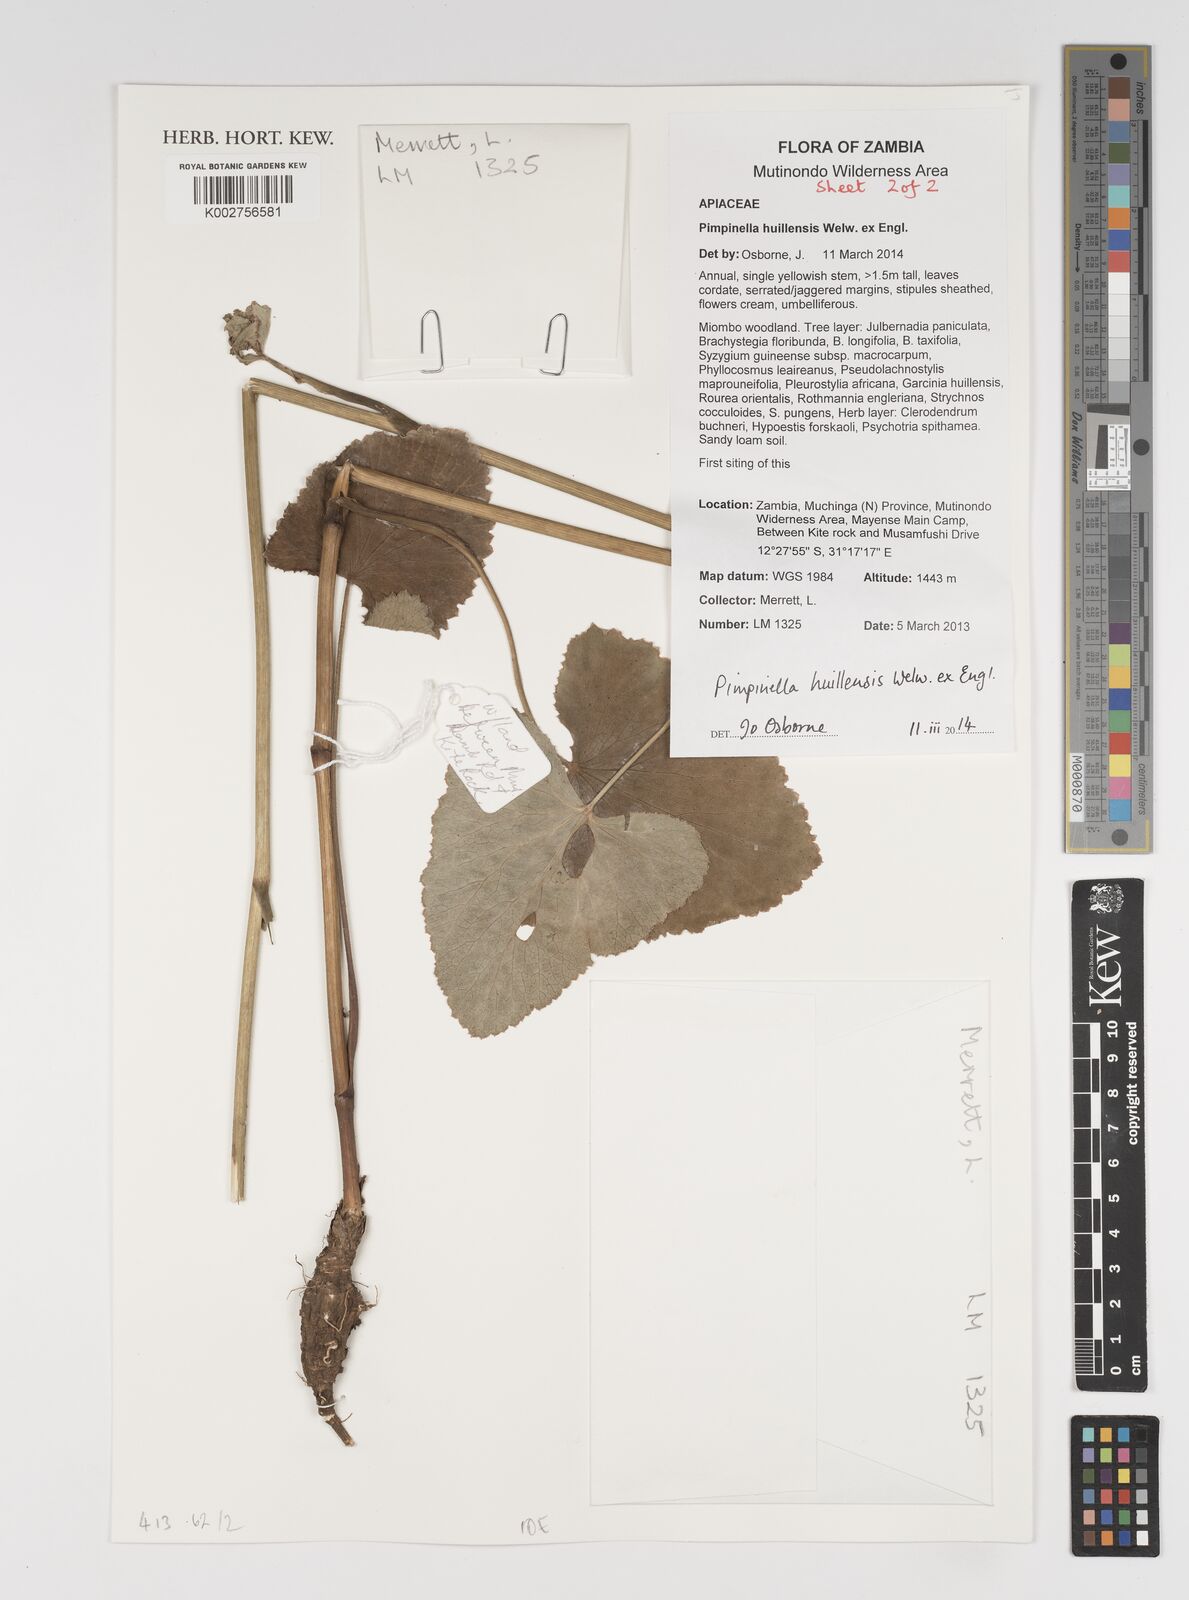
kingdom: Plantae
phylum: Tracheophyta
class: Magnoliopsida
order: Apiales
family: Apiaceae
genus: Pimpinella
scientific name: Pimpinella huillensis
